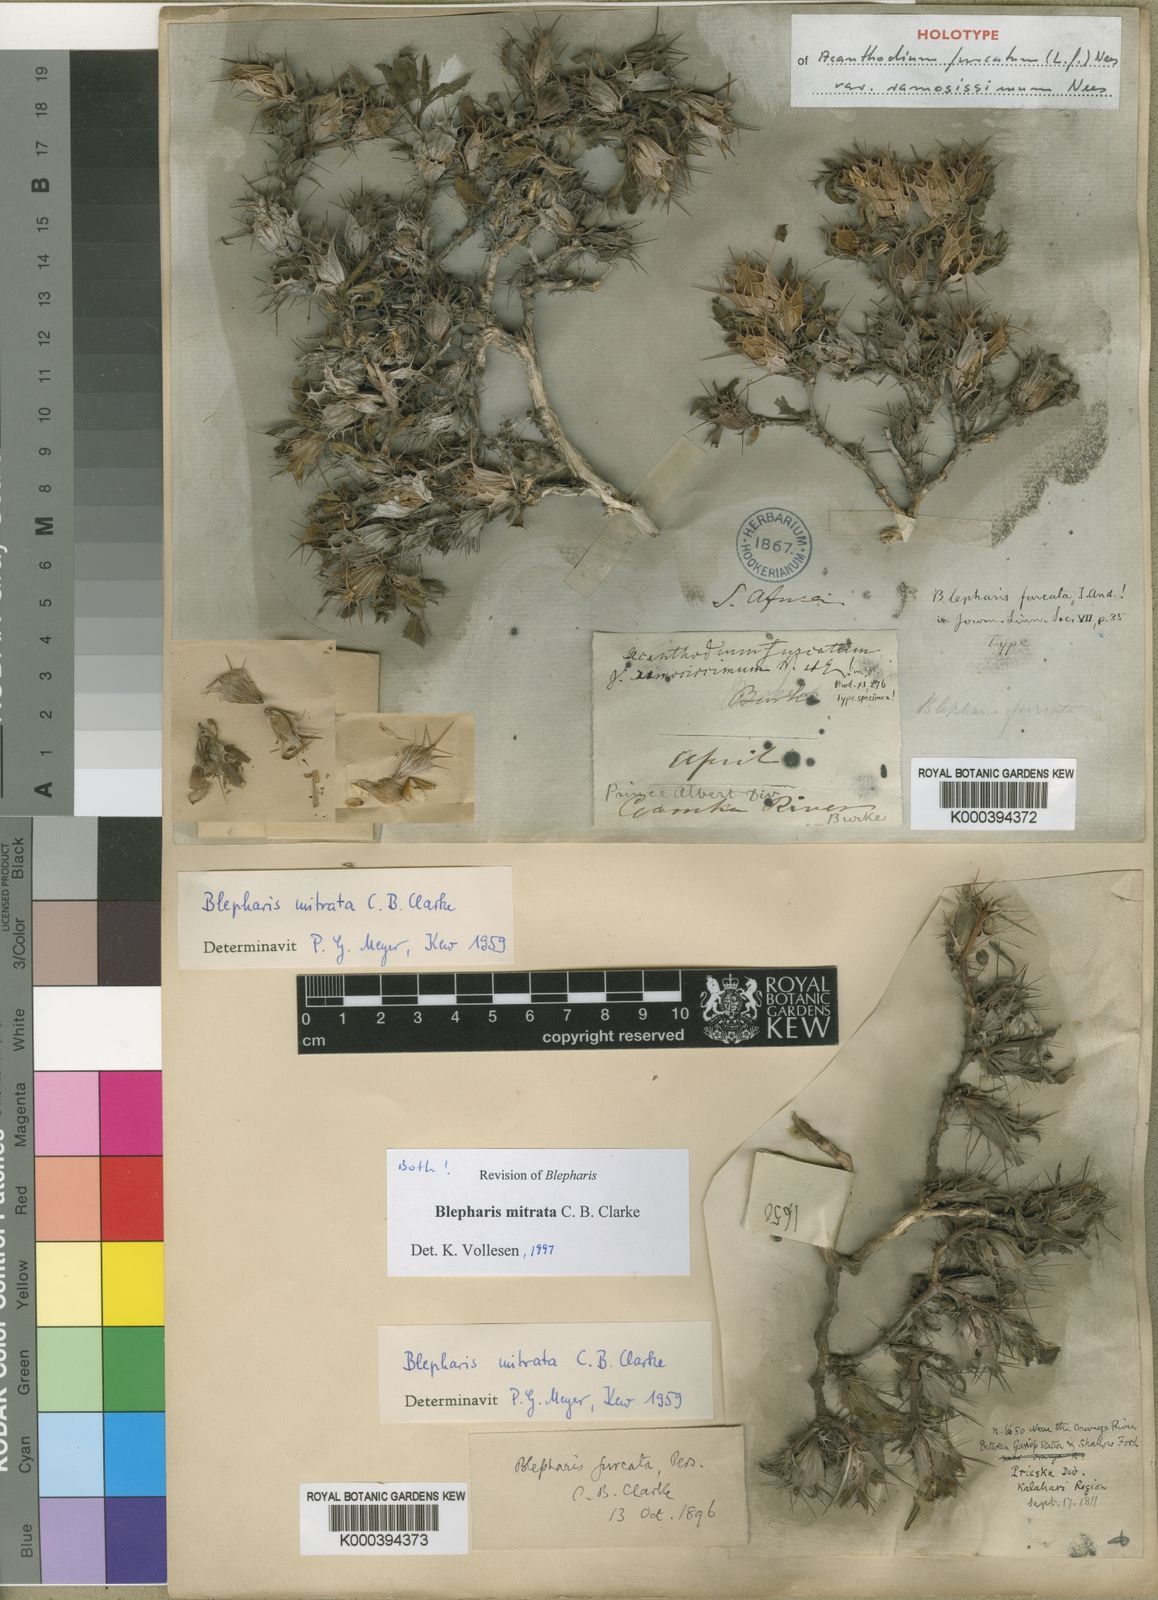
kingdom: Plantae
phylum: Tracheophyta
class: Magnoliopsida
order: Lamiales
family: Acanthaceae
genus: Blepharis
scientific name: Blepharis mitrata
